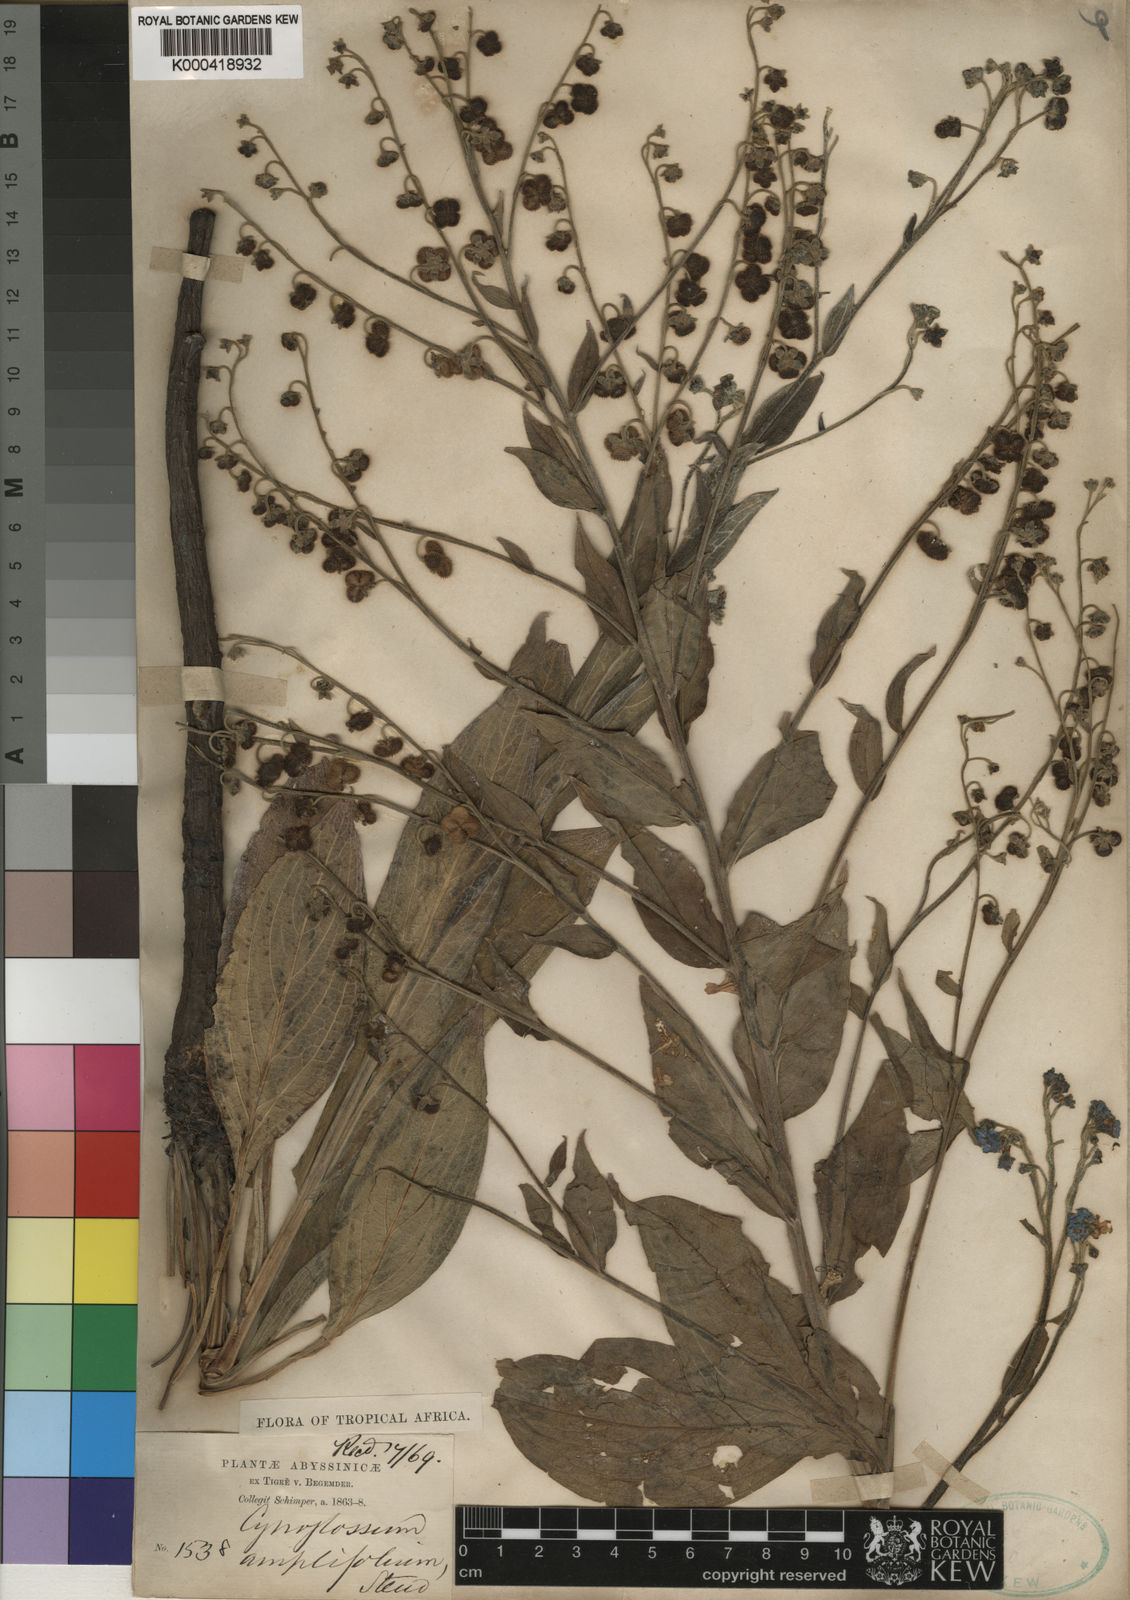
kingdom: Plantae
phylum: Tracheophyta
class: Magnoliopsida
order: Boraginales
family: Boraginaceae
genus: Cynoglossum
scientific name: Cynoglossum amplifolium
